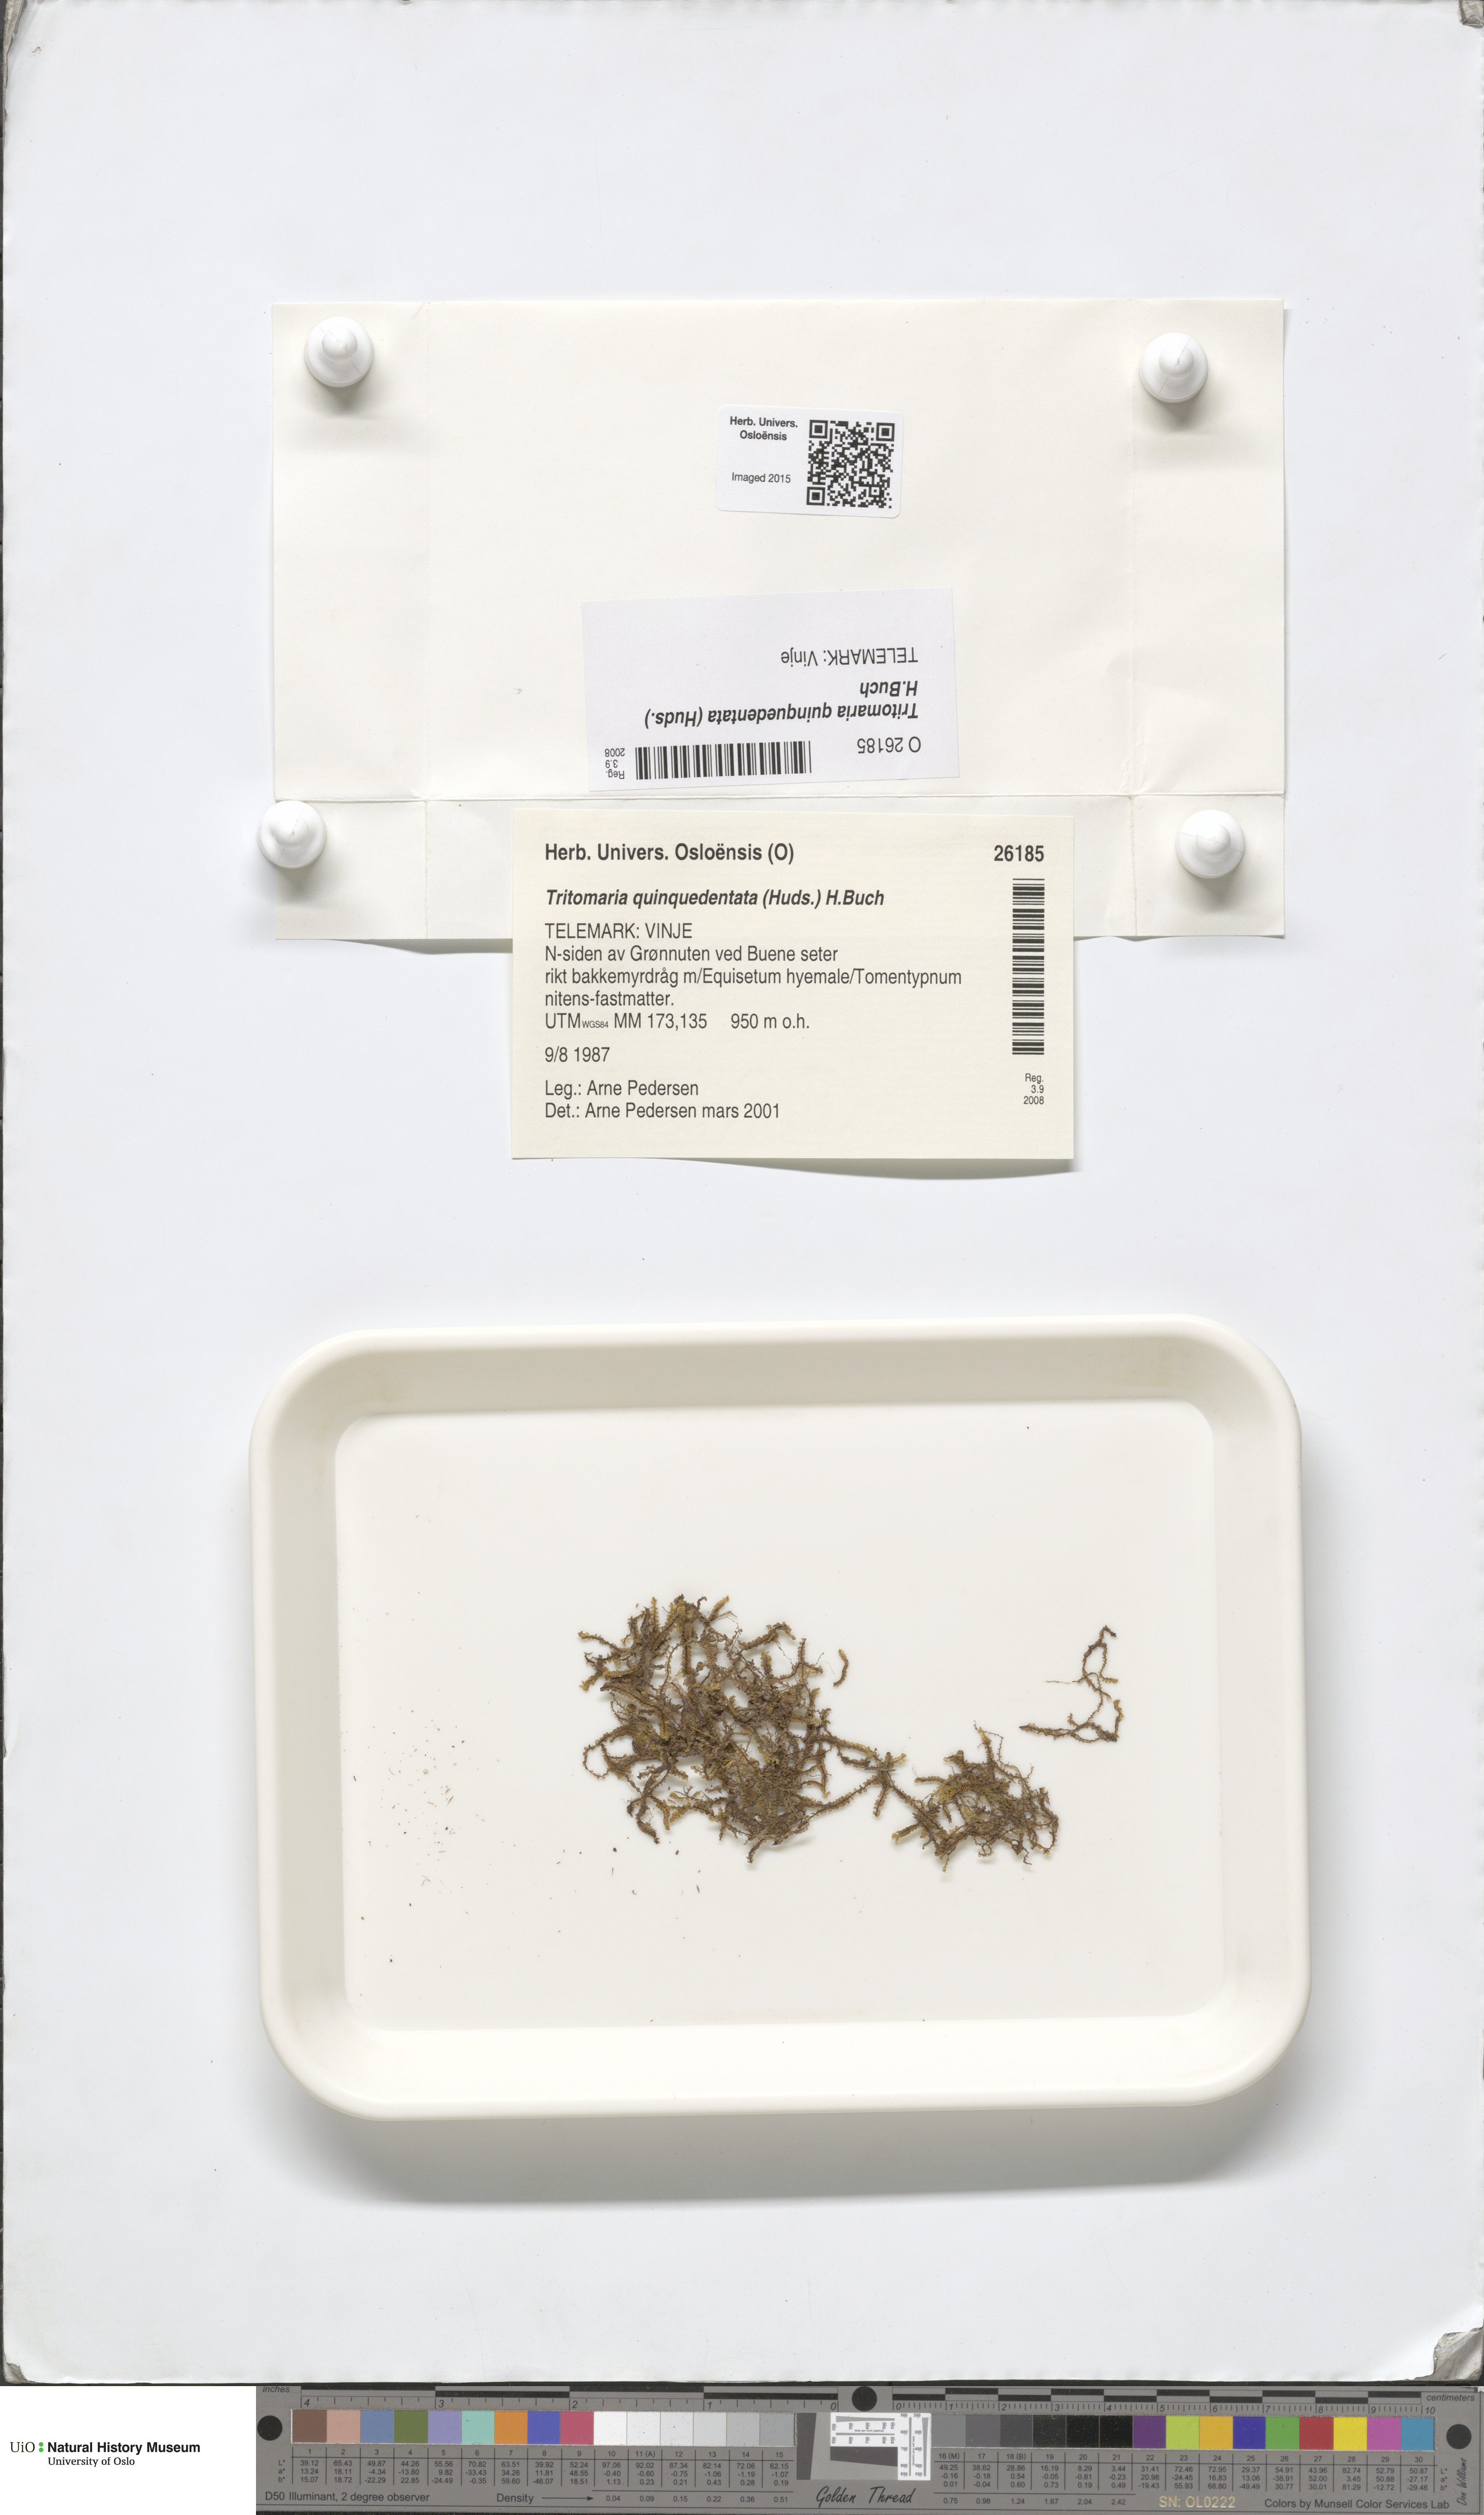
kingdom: Plantae
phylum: Marchantiophyta
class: Jungermanniopsida
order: Jungermanniales
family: Lophoziaceae
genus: Trilophozia
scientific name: Trilophozia quinquedentata
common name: Large notchwort
